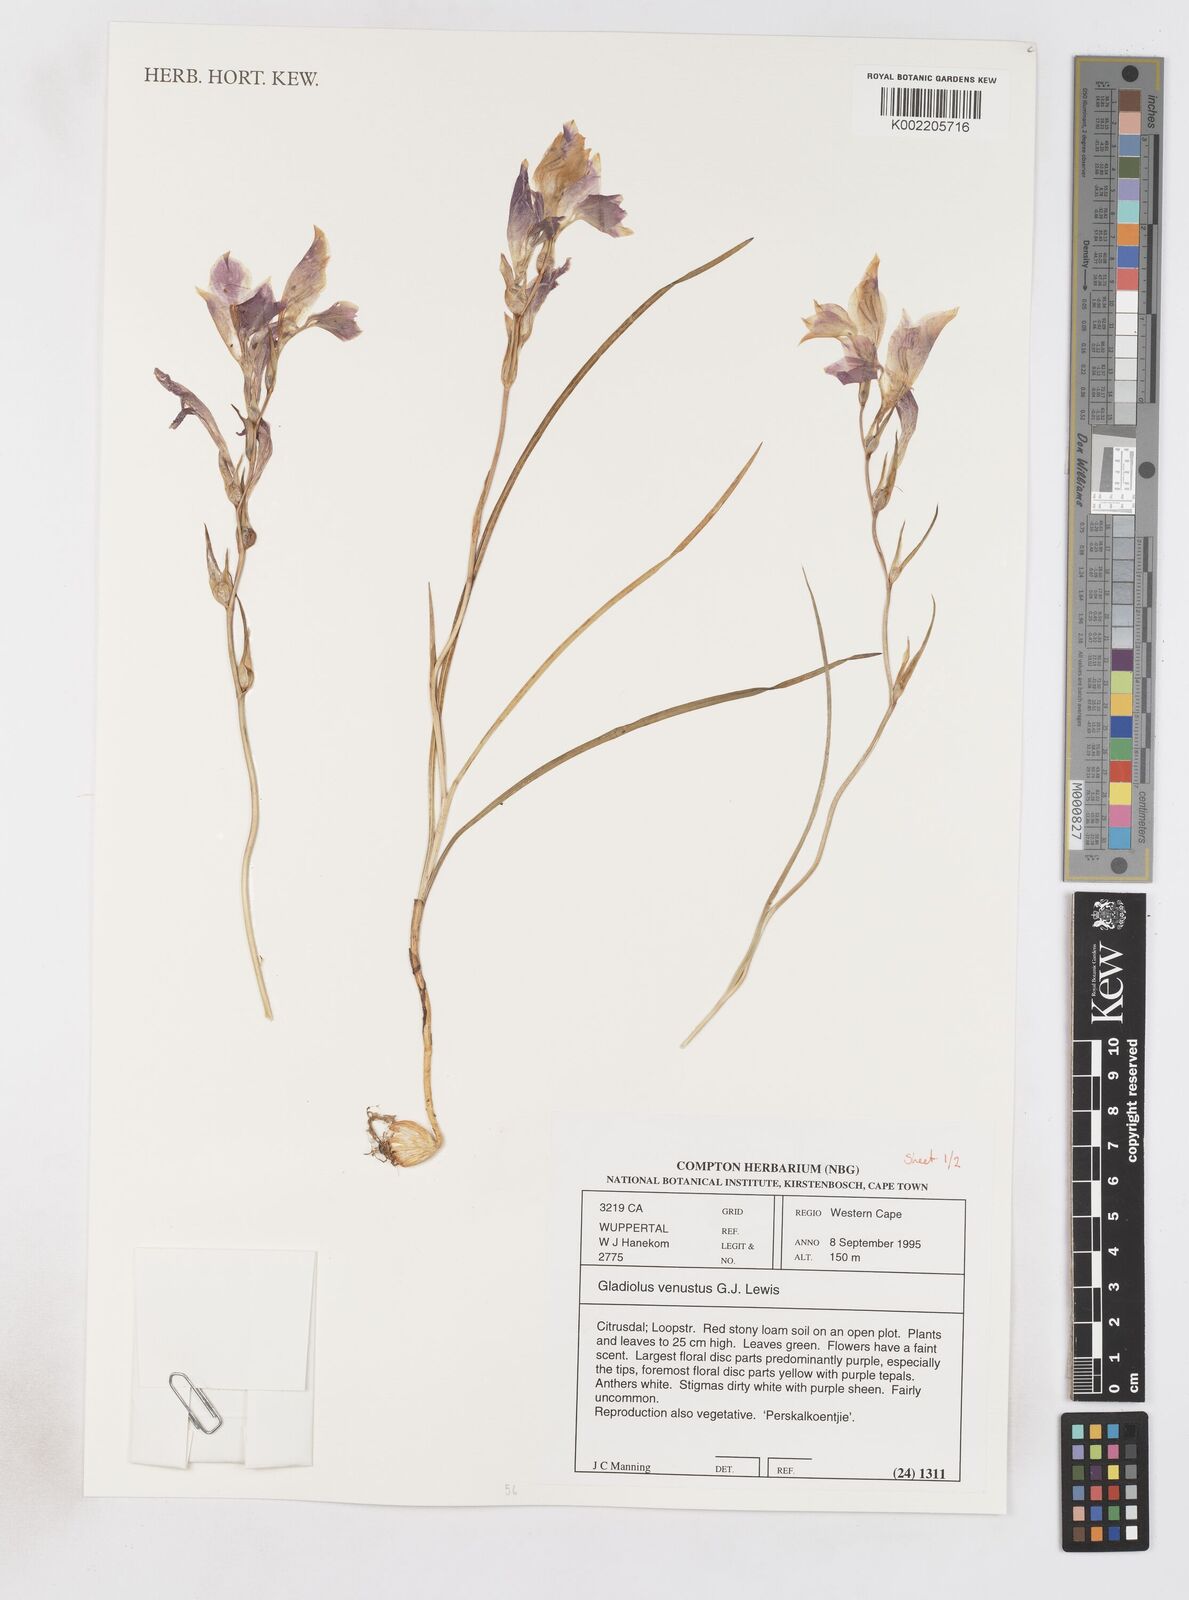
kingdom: Plantae
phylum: Tracheophyta
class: Liliopsida
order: Asparagales
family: Iridaceae
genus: Gladiolus
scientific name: Gladiolus venustus
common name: Purple kalkoentjie
